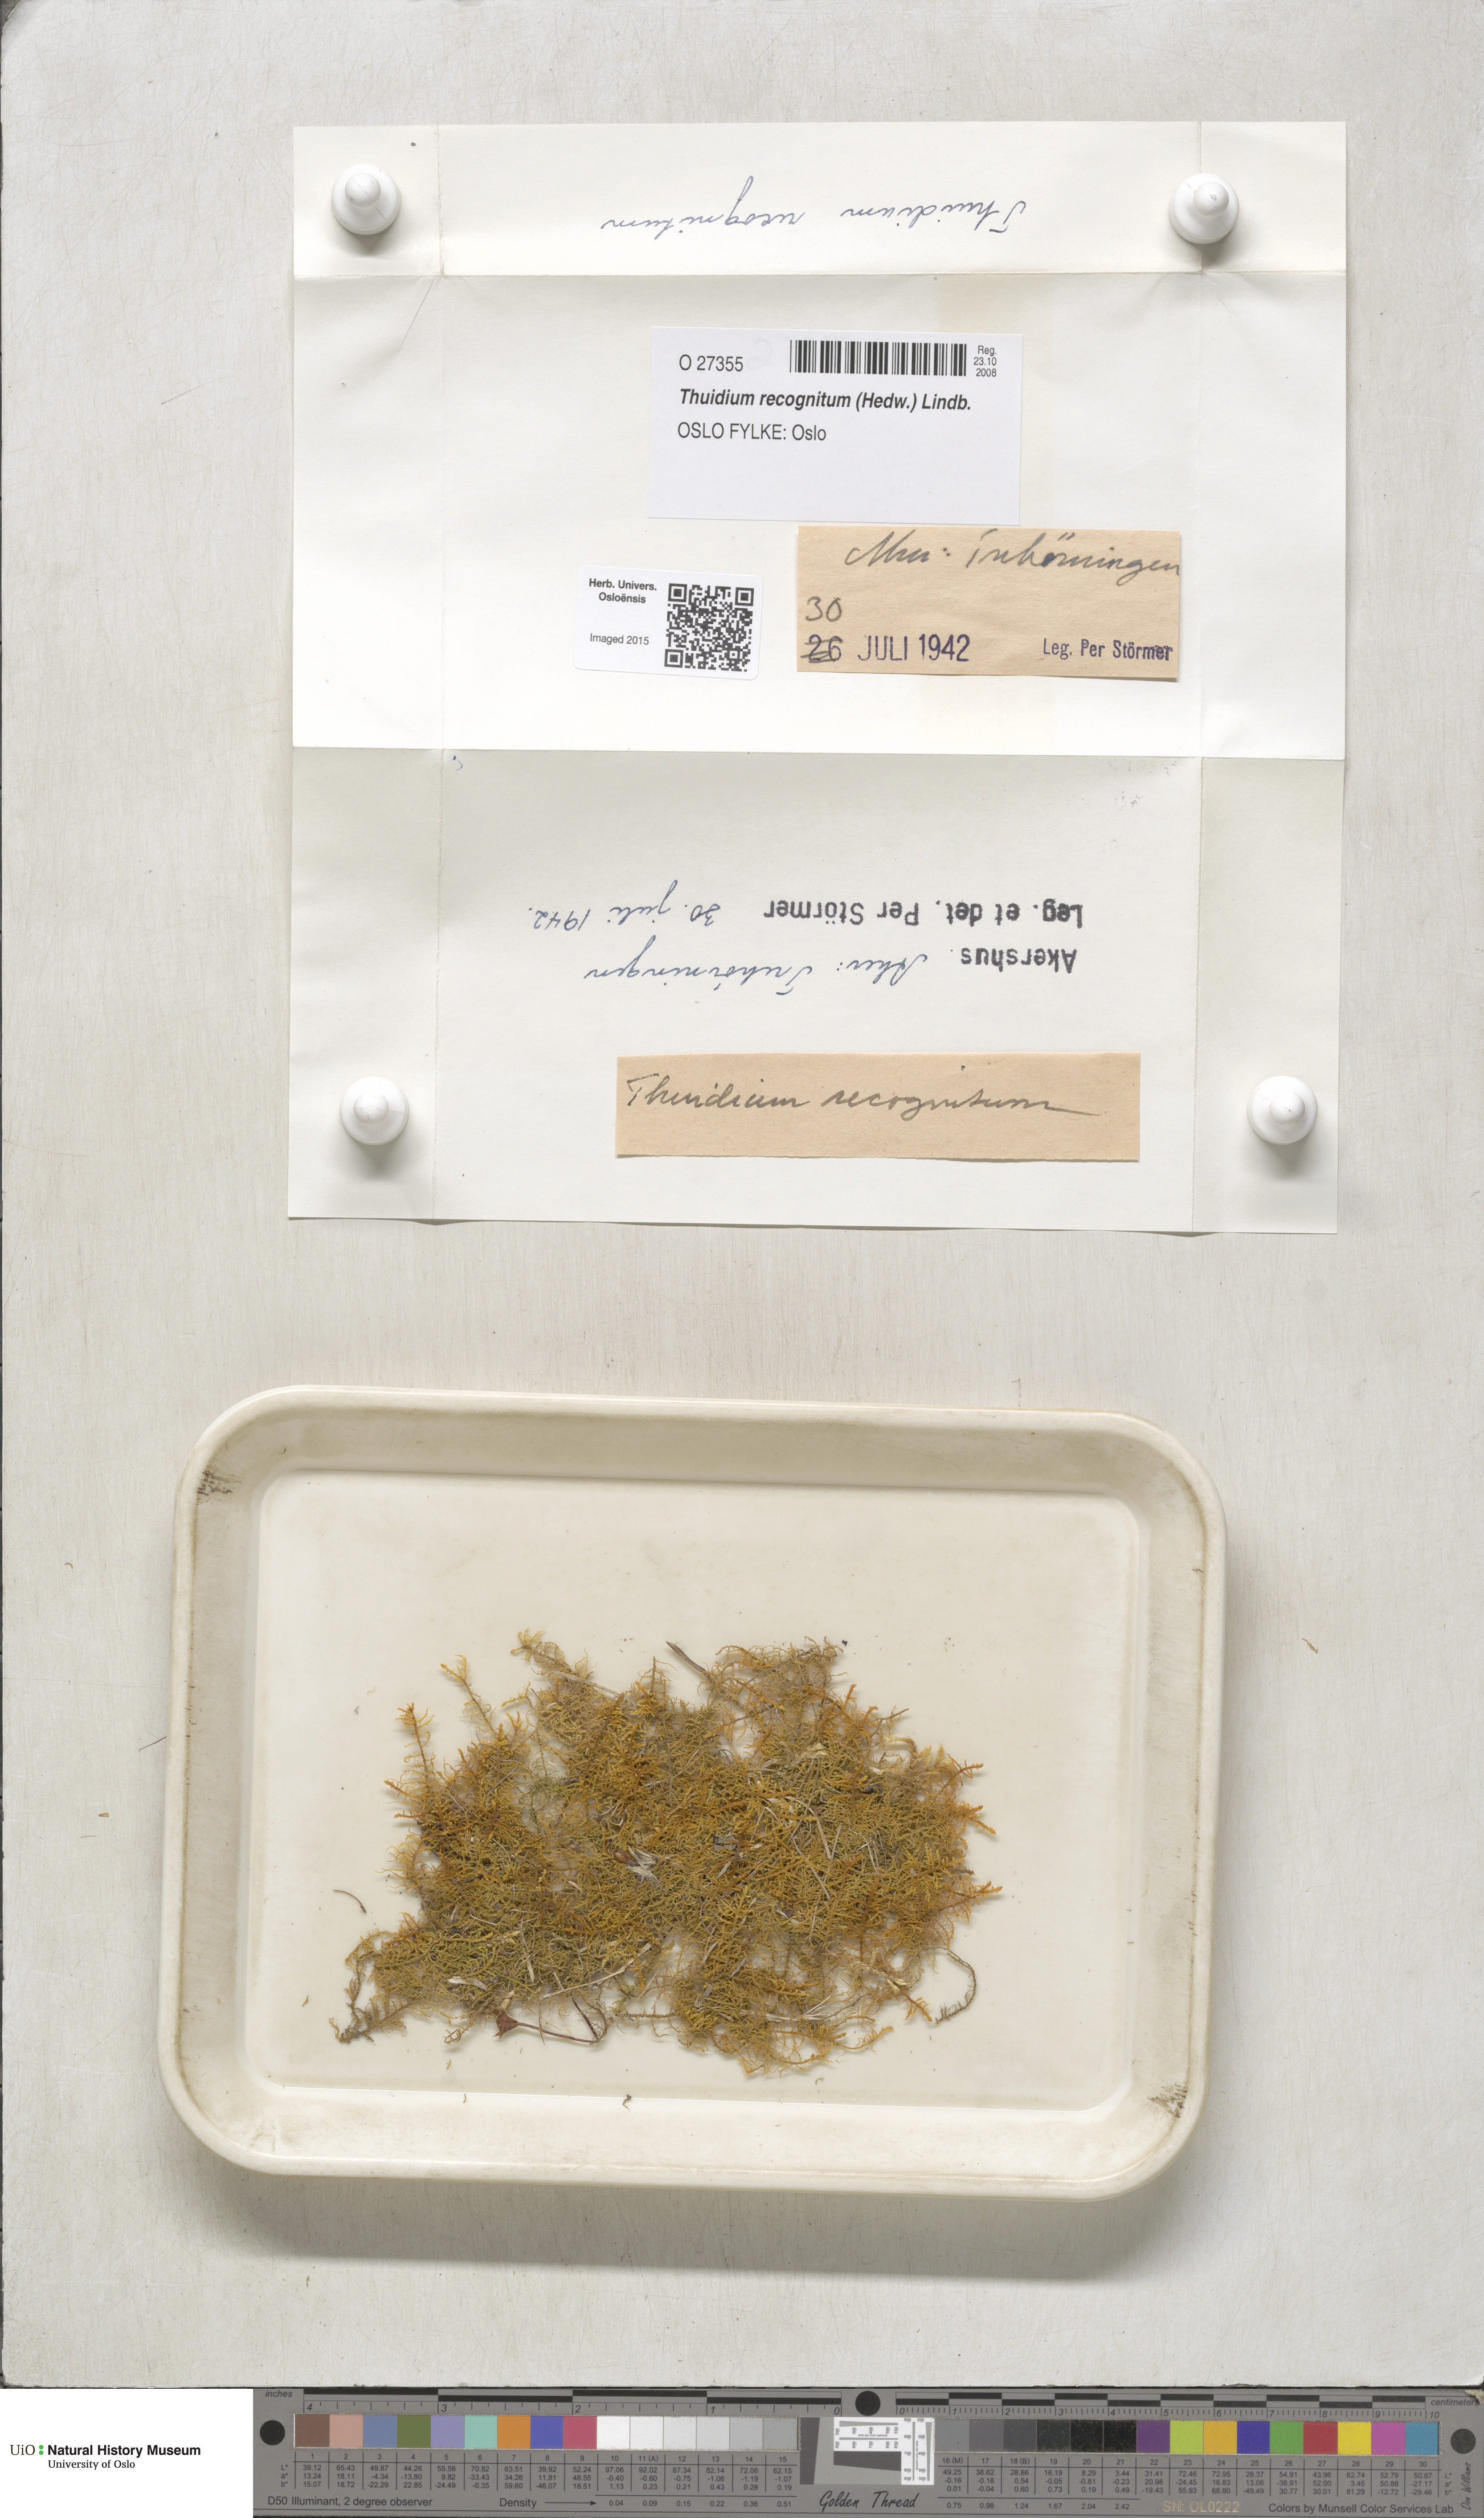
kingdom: Plantae
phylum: Bryophyta
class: Bryopsida
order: Hypnales
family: Thuidiaceae
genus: Thuidium
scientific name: Thuidium recognitum
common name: Hook-leaved fern moss
